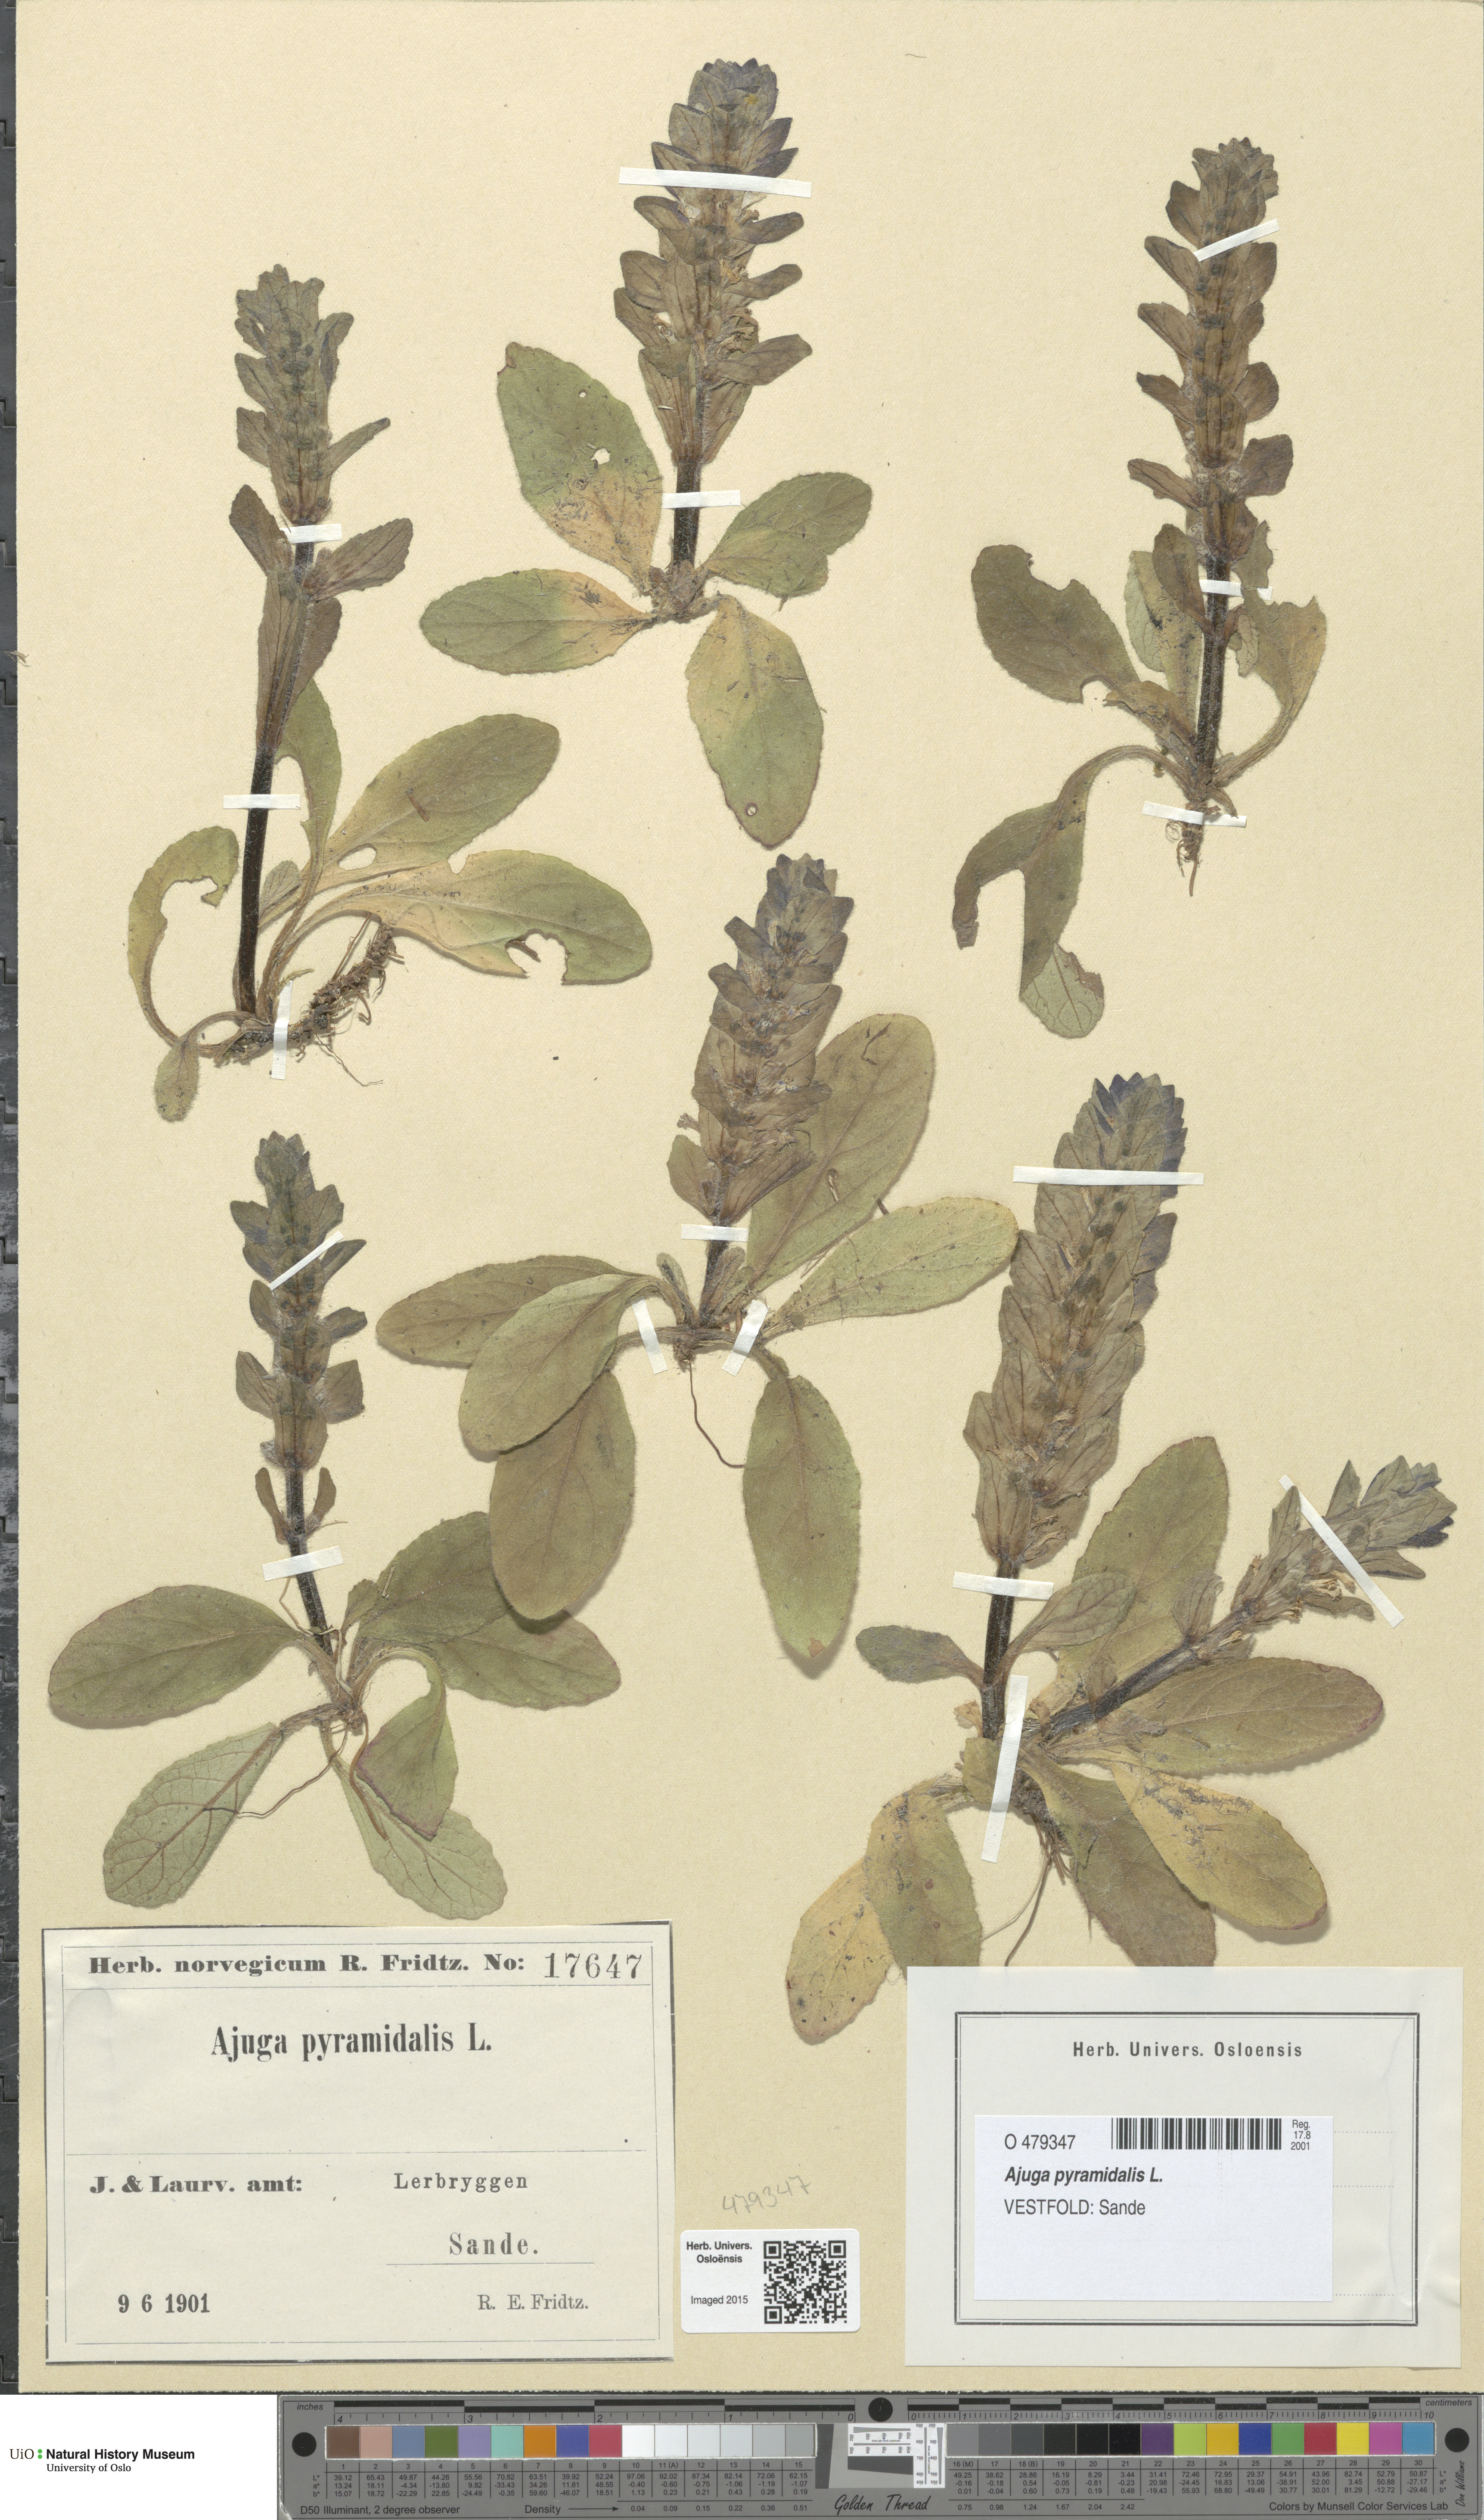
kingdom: Plantae
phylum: Tracheophyta
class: Magnoliopsida
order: Lamiales
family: Lamiaceae
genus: Ajuga
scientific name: Ajuga pyramidalis
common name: Pyramid bugle
